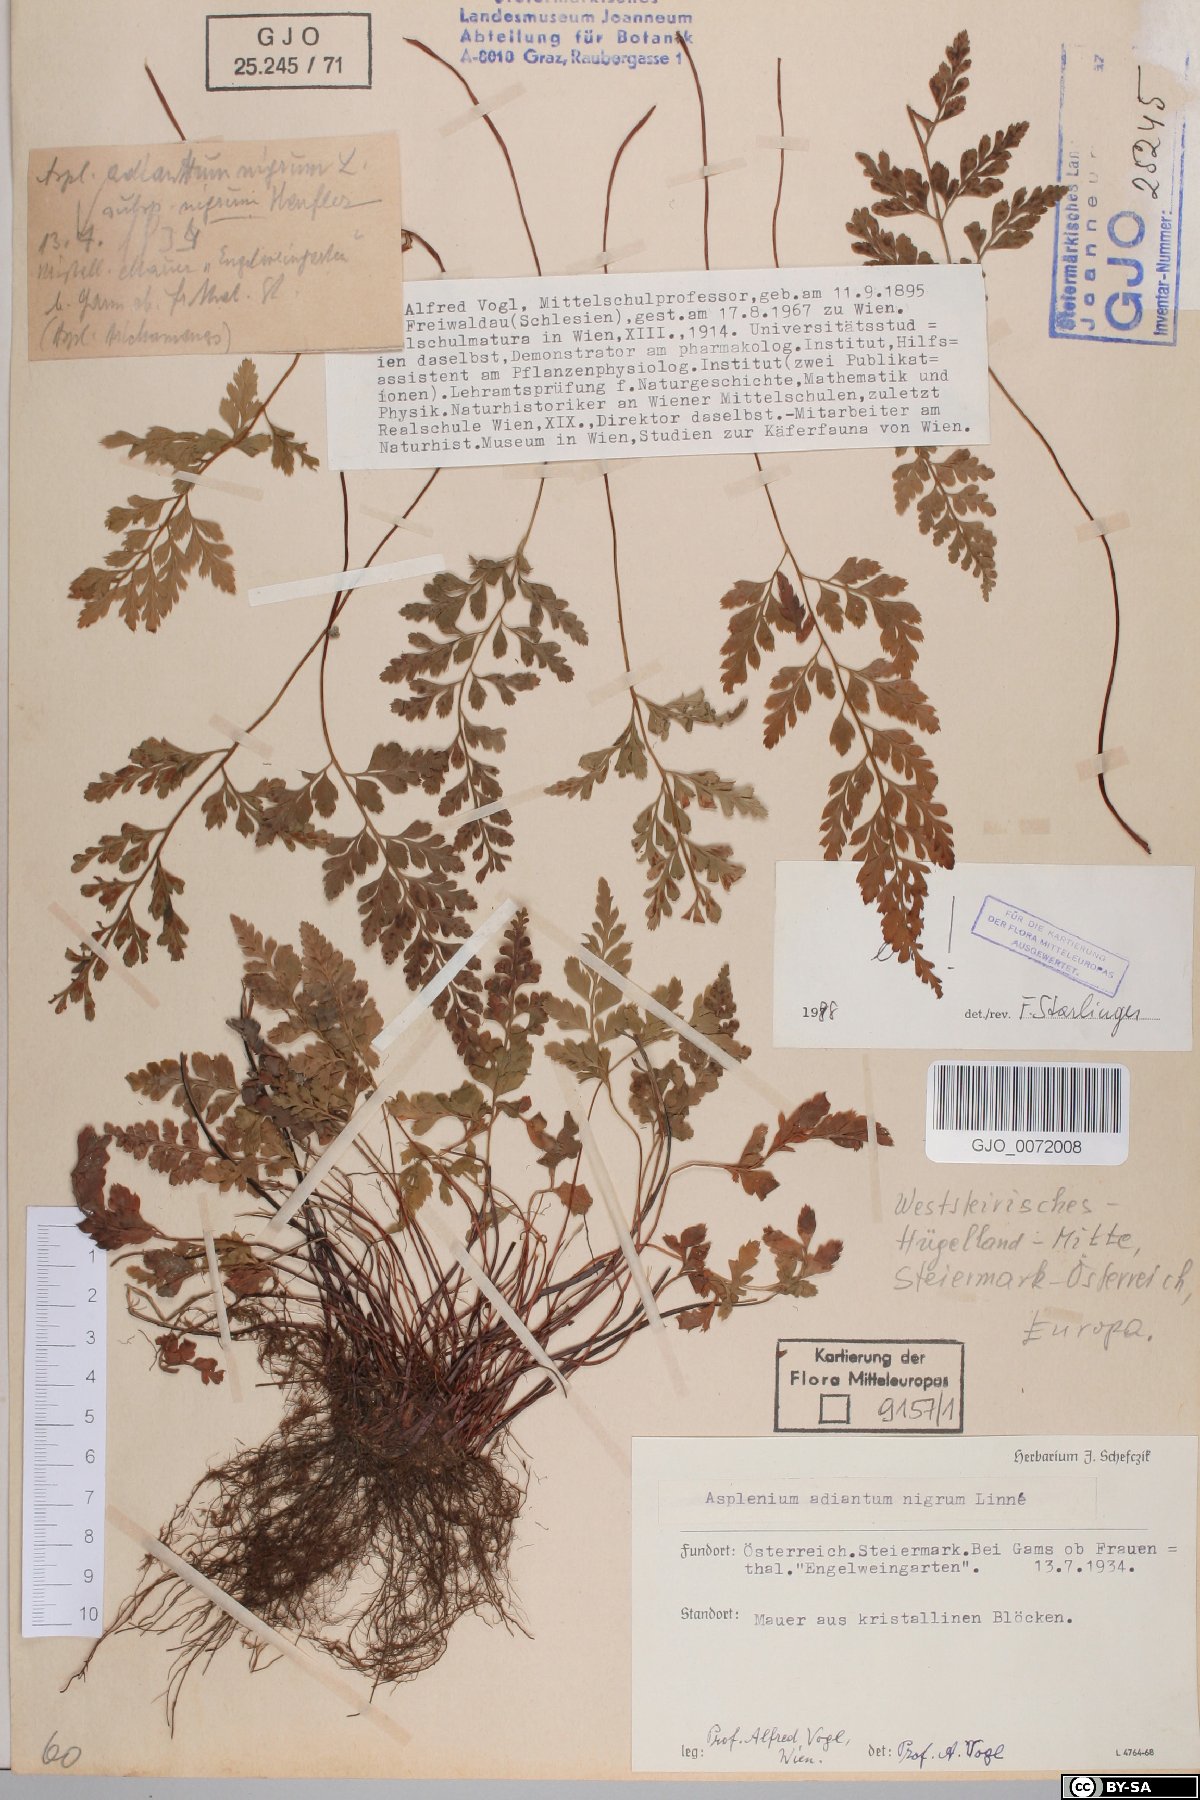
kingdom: Plantae
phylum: Tracheophyta
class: Polypodiopsida
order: Polypodiales
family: Aspleniaceae
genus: Asplenium
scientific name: Asplenium adiantum-nigrum
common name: Black spleenwort
